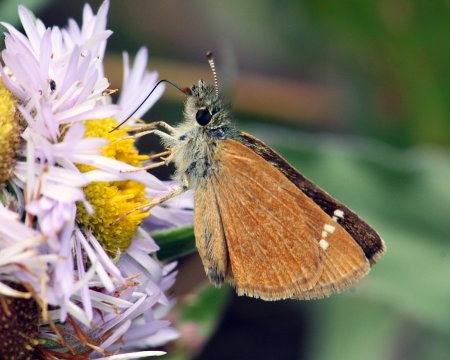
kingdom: Animalia
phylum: Arthropoda
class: Insecta
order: Lepidoptera
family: Hesperiidae
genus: Piruna
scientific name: Piruna pirus
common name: Russet Skipperling
